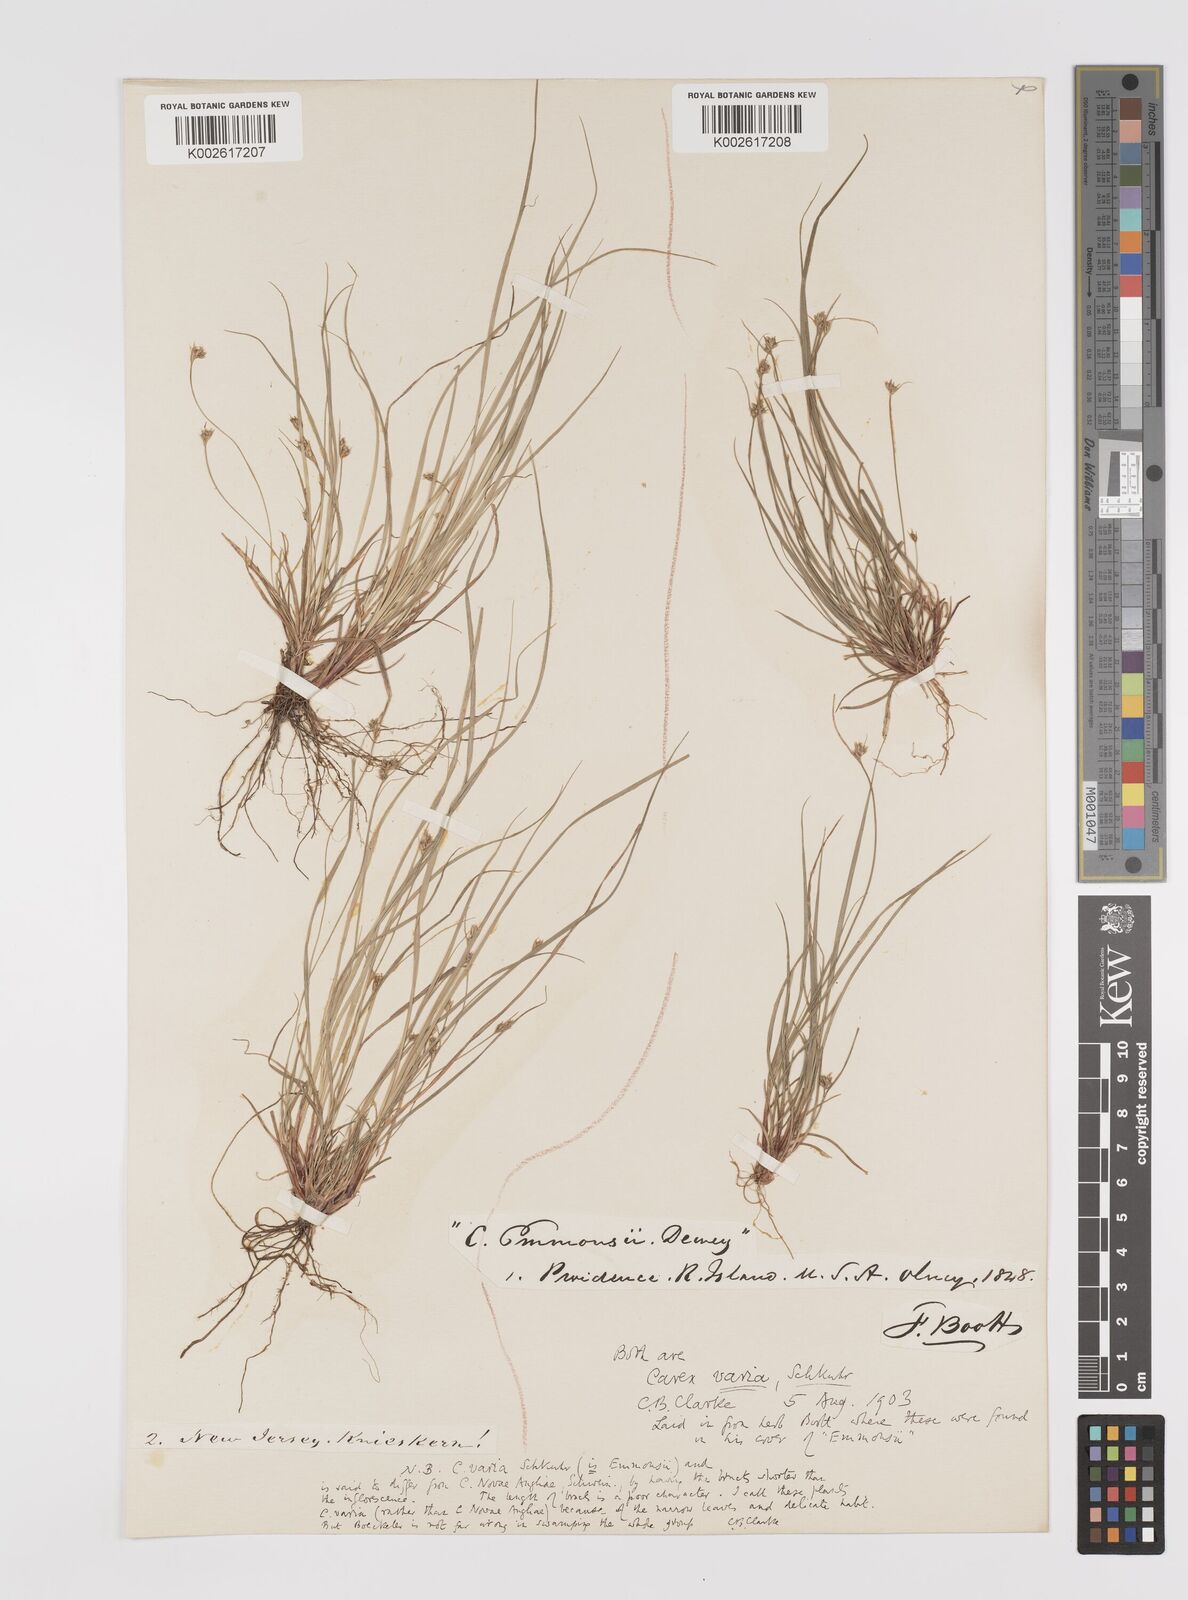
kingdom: Plantae
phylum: Tracheophyta
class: Liliopsida
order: Poales
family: Cyperaceae
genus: Carex
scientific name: Carex albicans
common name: Bellow-beaked sedge
